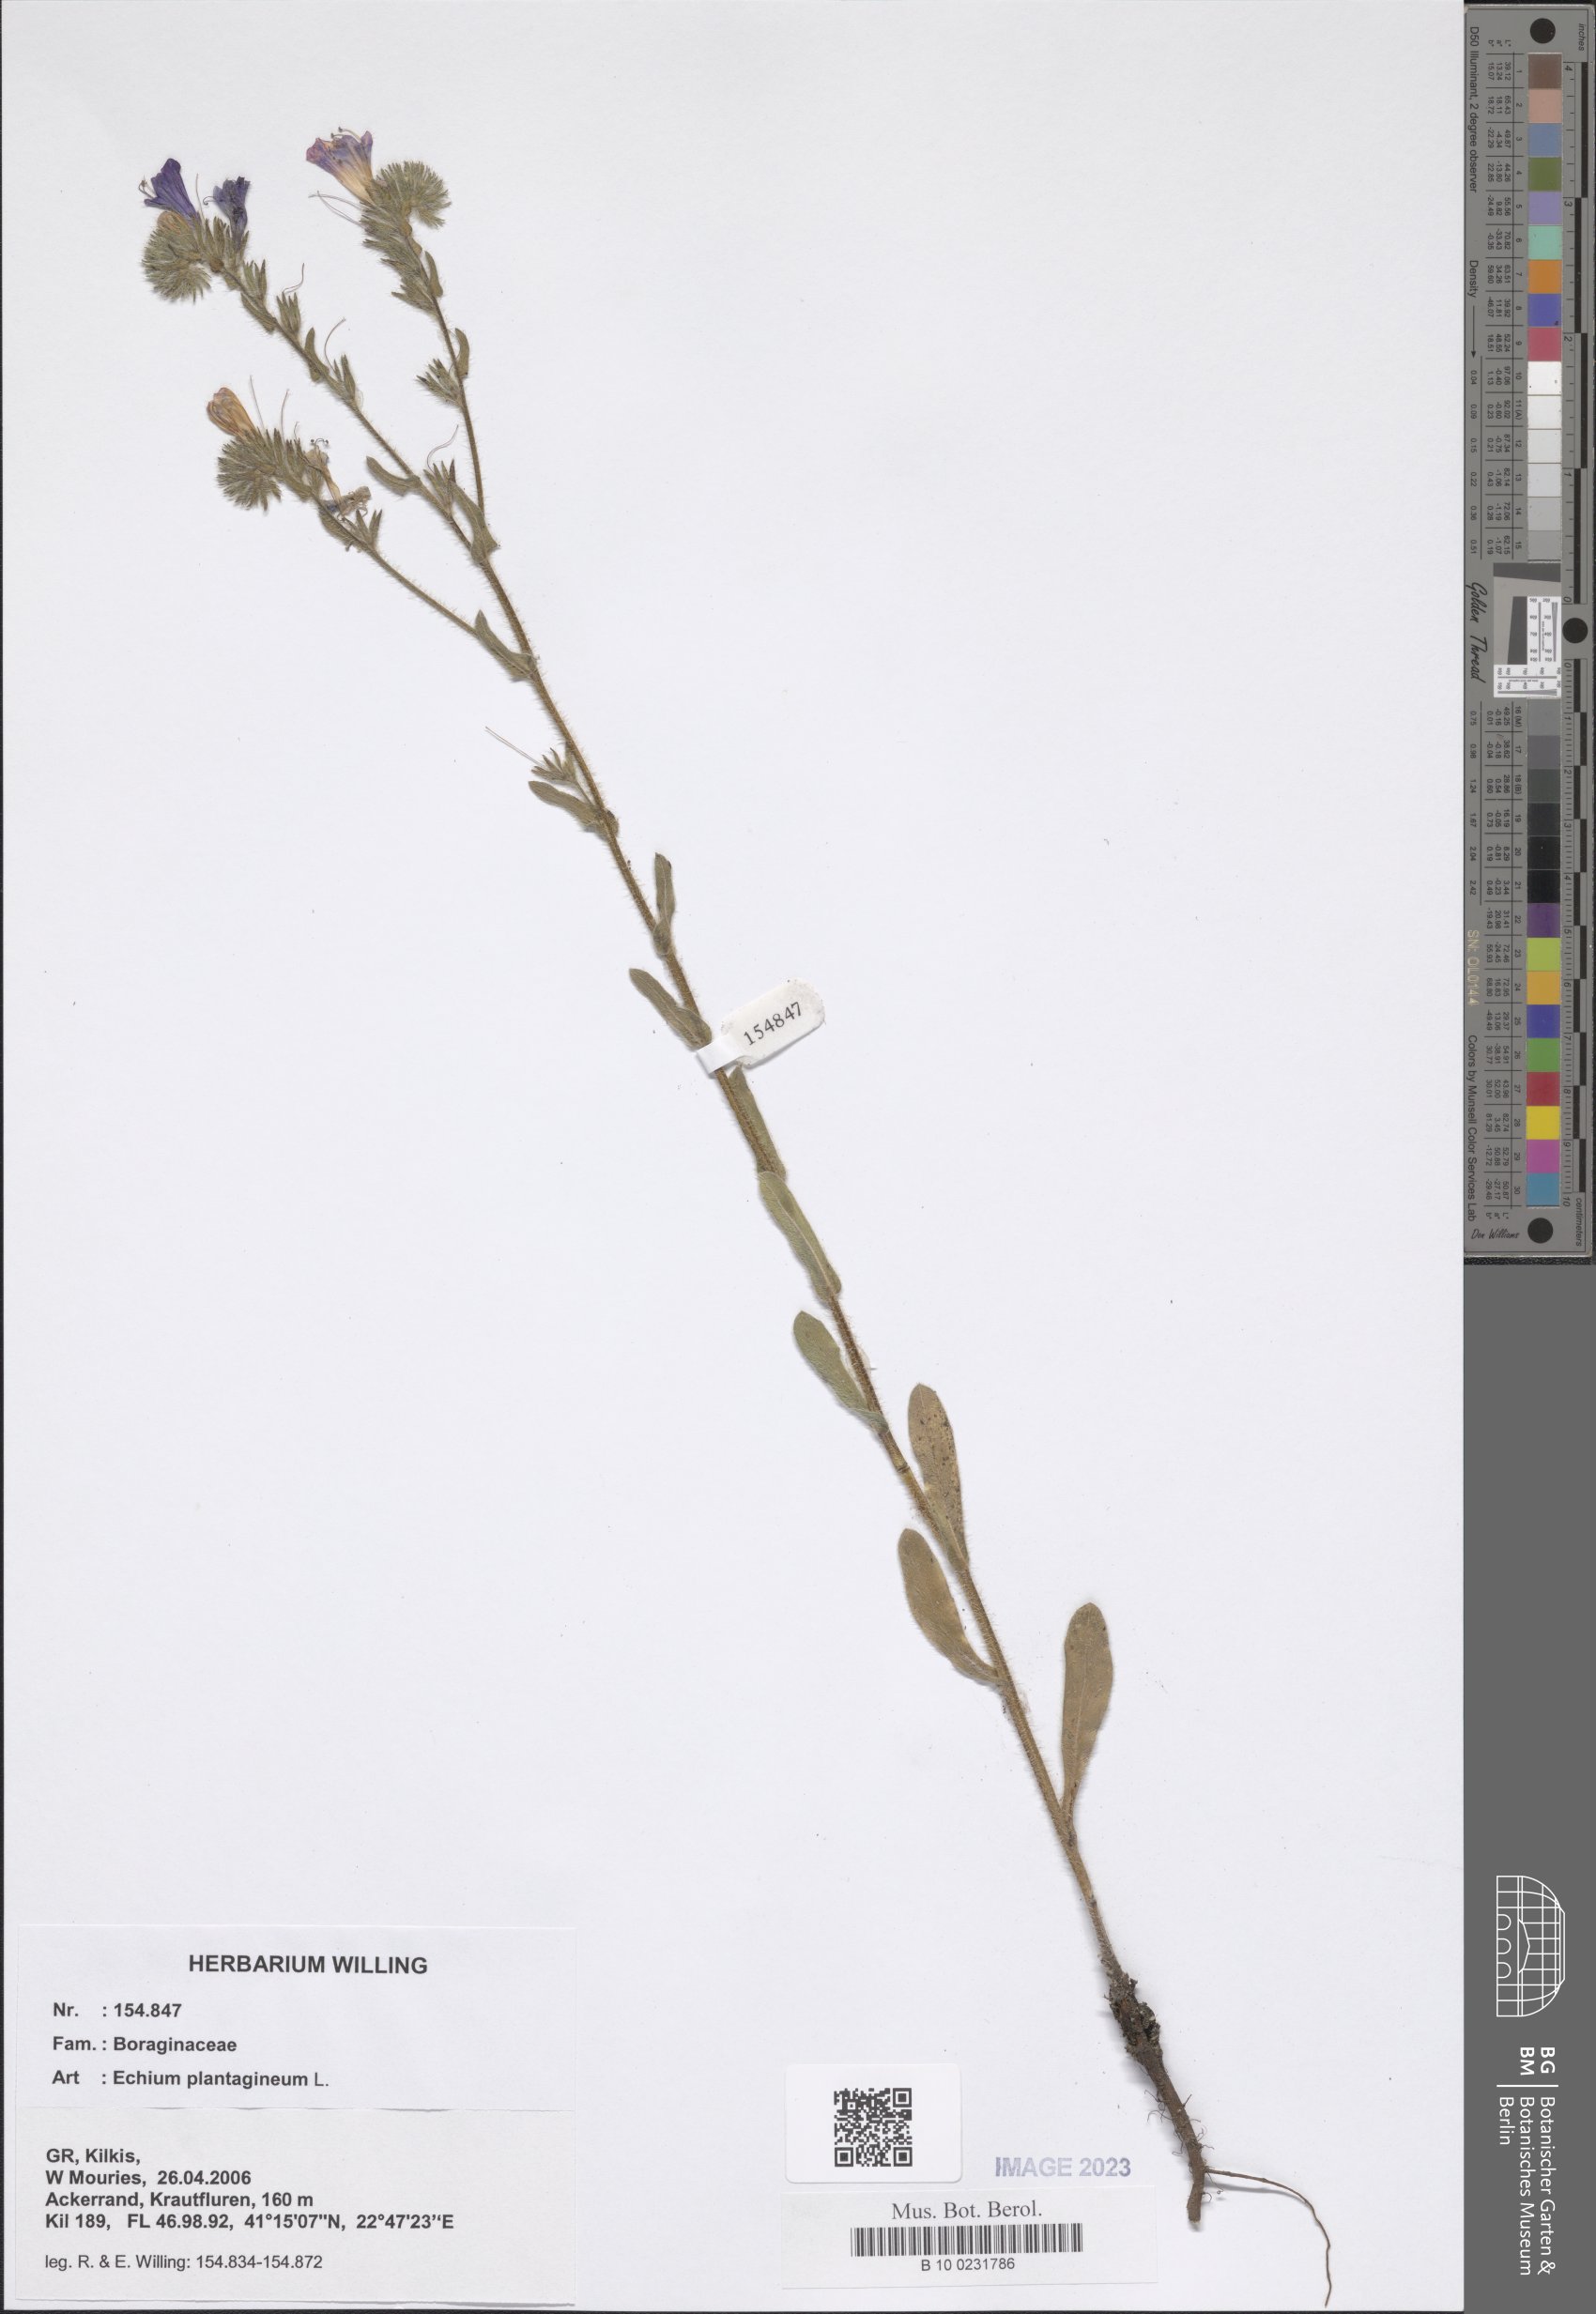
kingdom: Plantae
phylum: Tracheophyta
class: Magnoliopsida
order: Boraginales
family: Boraginaceae
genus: Echium
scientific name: Echium plantagineum
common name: Purple viper's-bugloss
